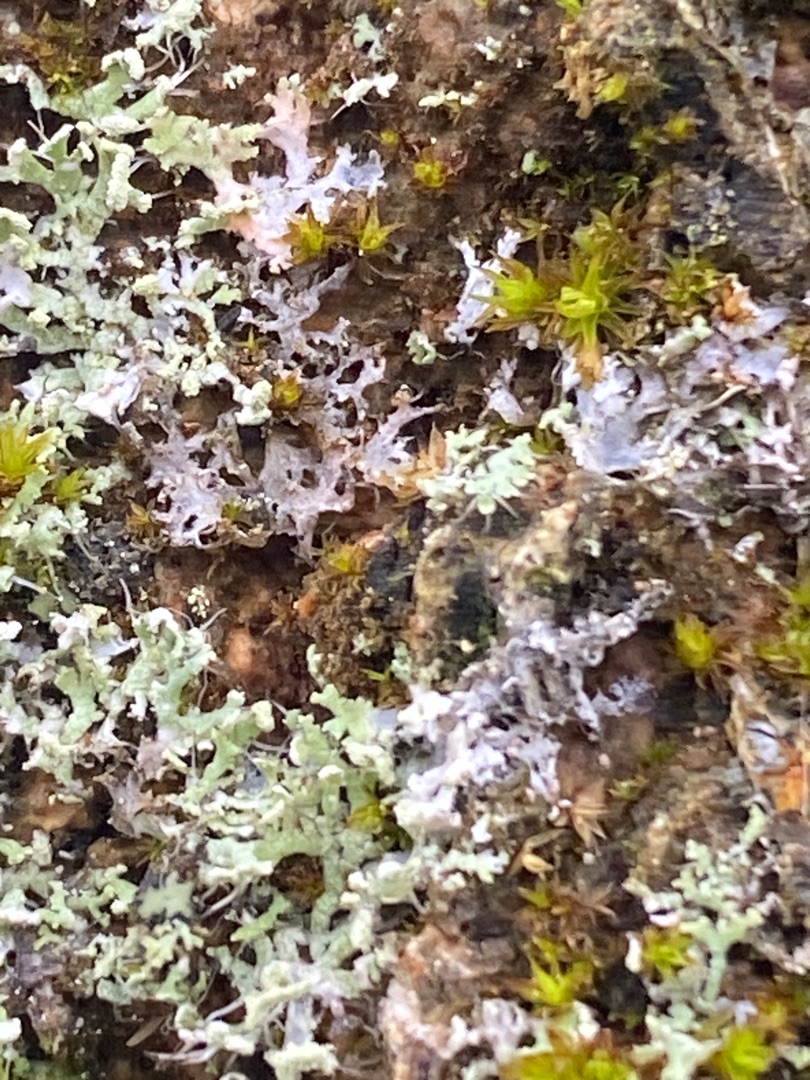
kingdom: Fungi
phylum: Ascomycota
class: Lecanoromycetes
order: Caliciales
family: Physciaceae
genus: Physcia
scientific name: Physcia tenella
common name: Spæd rosetlav
